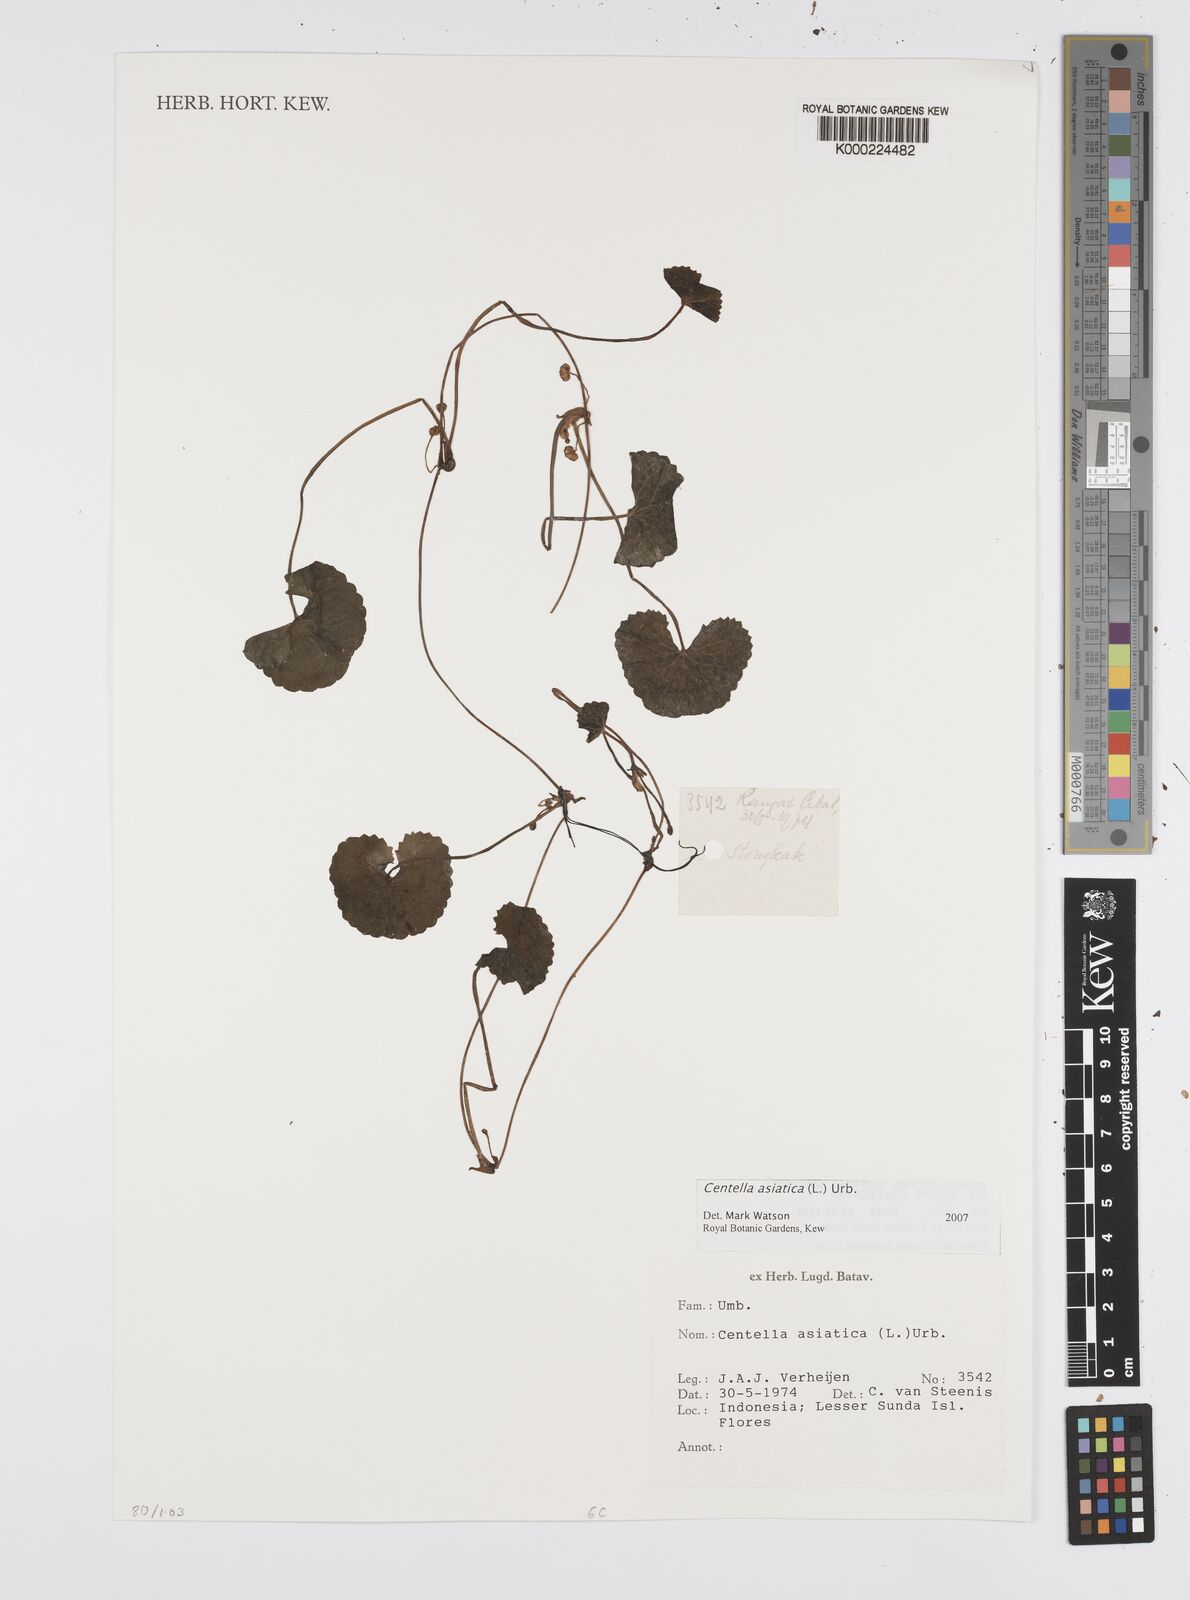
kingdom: Plantae
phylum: Tracheophyta
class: Magnoliopsida
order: Apiales
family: Apiaceae
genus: Centella
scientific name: Centella asiatica
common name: Spadeleaf
